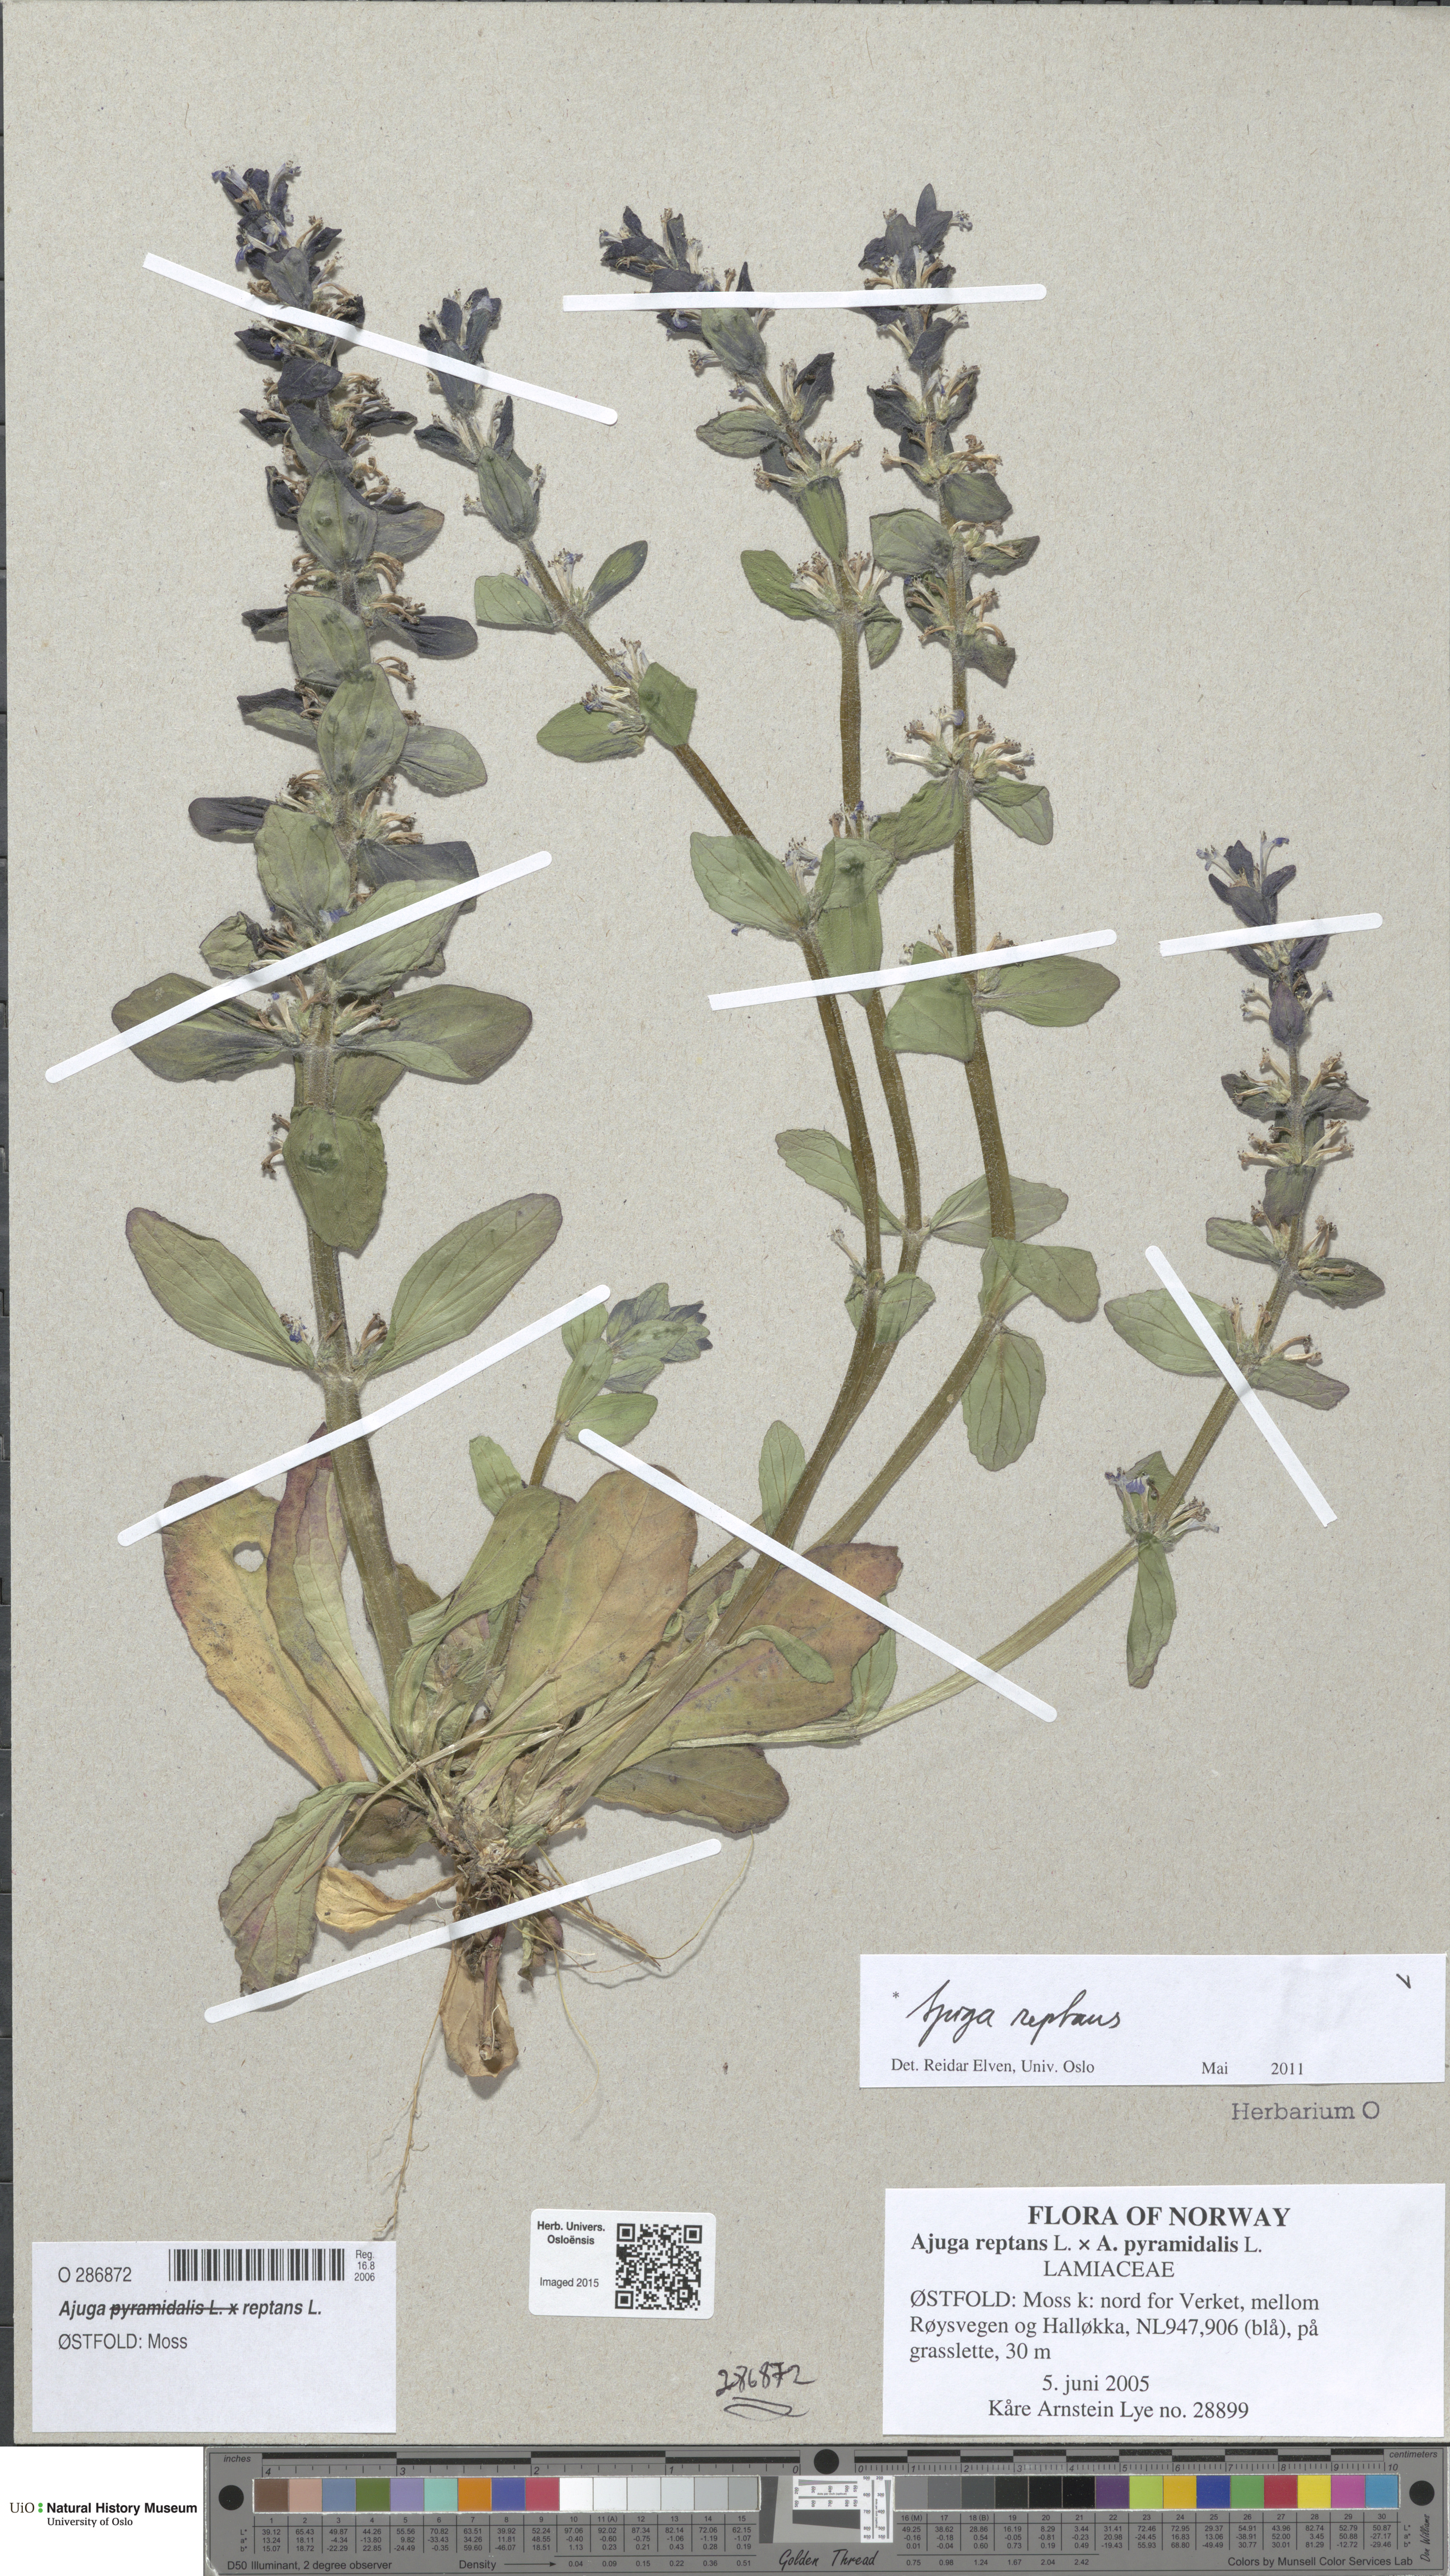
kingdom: Plantae
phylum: Tracheophyta
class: Magnoliopsida
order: Lamiales
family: Lamiaceae
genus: Ajuga
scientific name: Ajuga reptans
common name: Bugle
